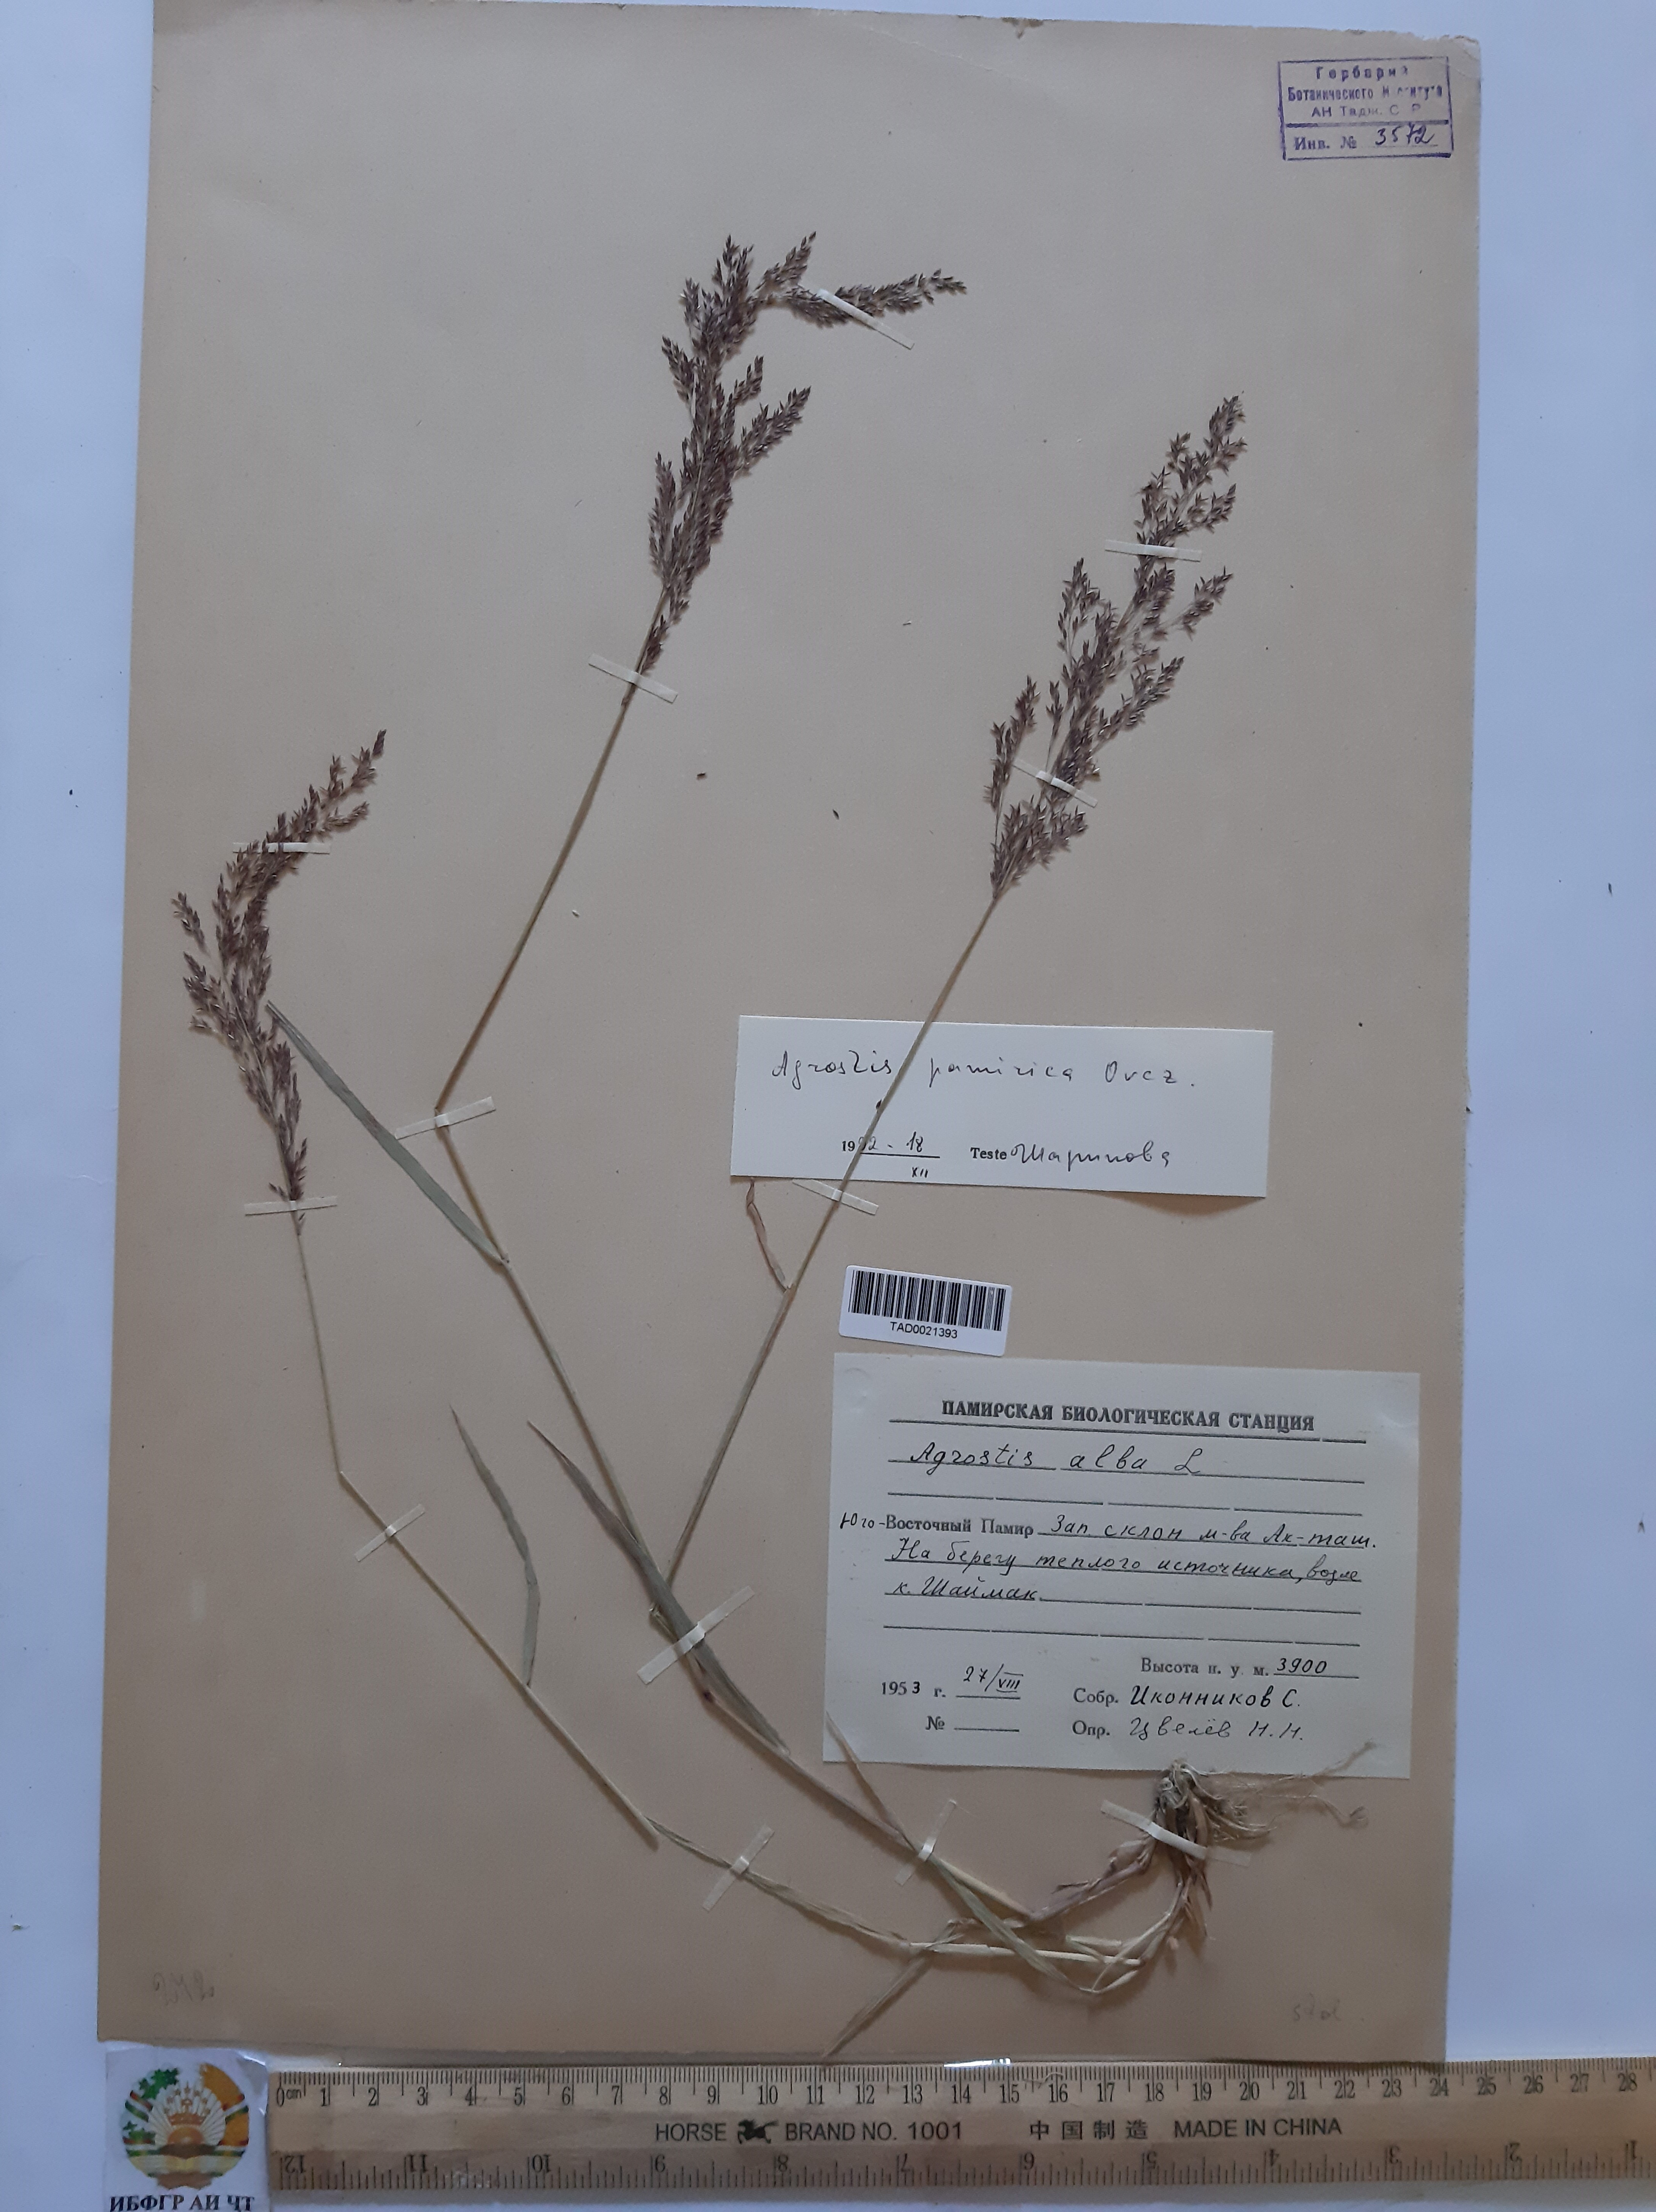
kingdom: Plantae
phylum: Tracheophyta
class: Liliopsida
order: Poales
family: Poaceae
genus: Polypogon
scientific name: Polypogon hissaricus
